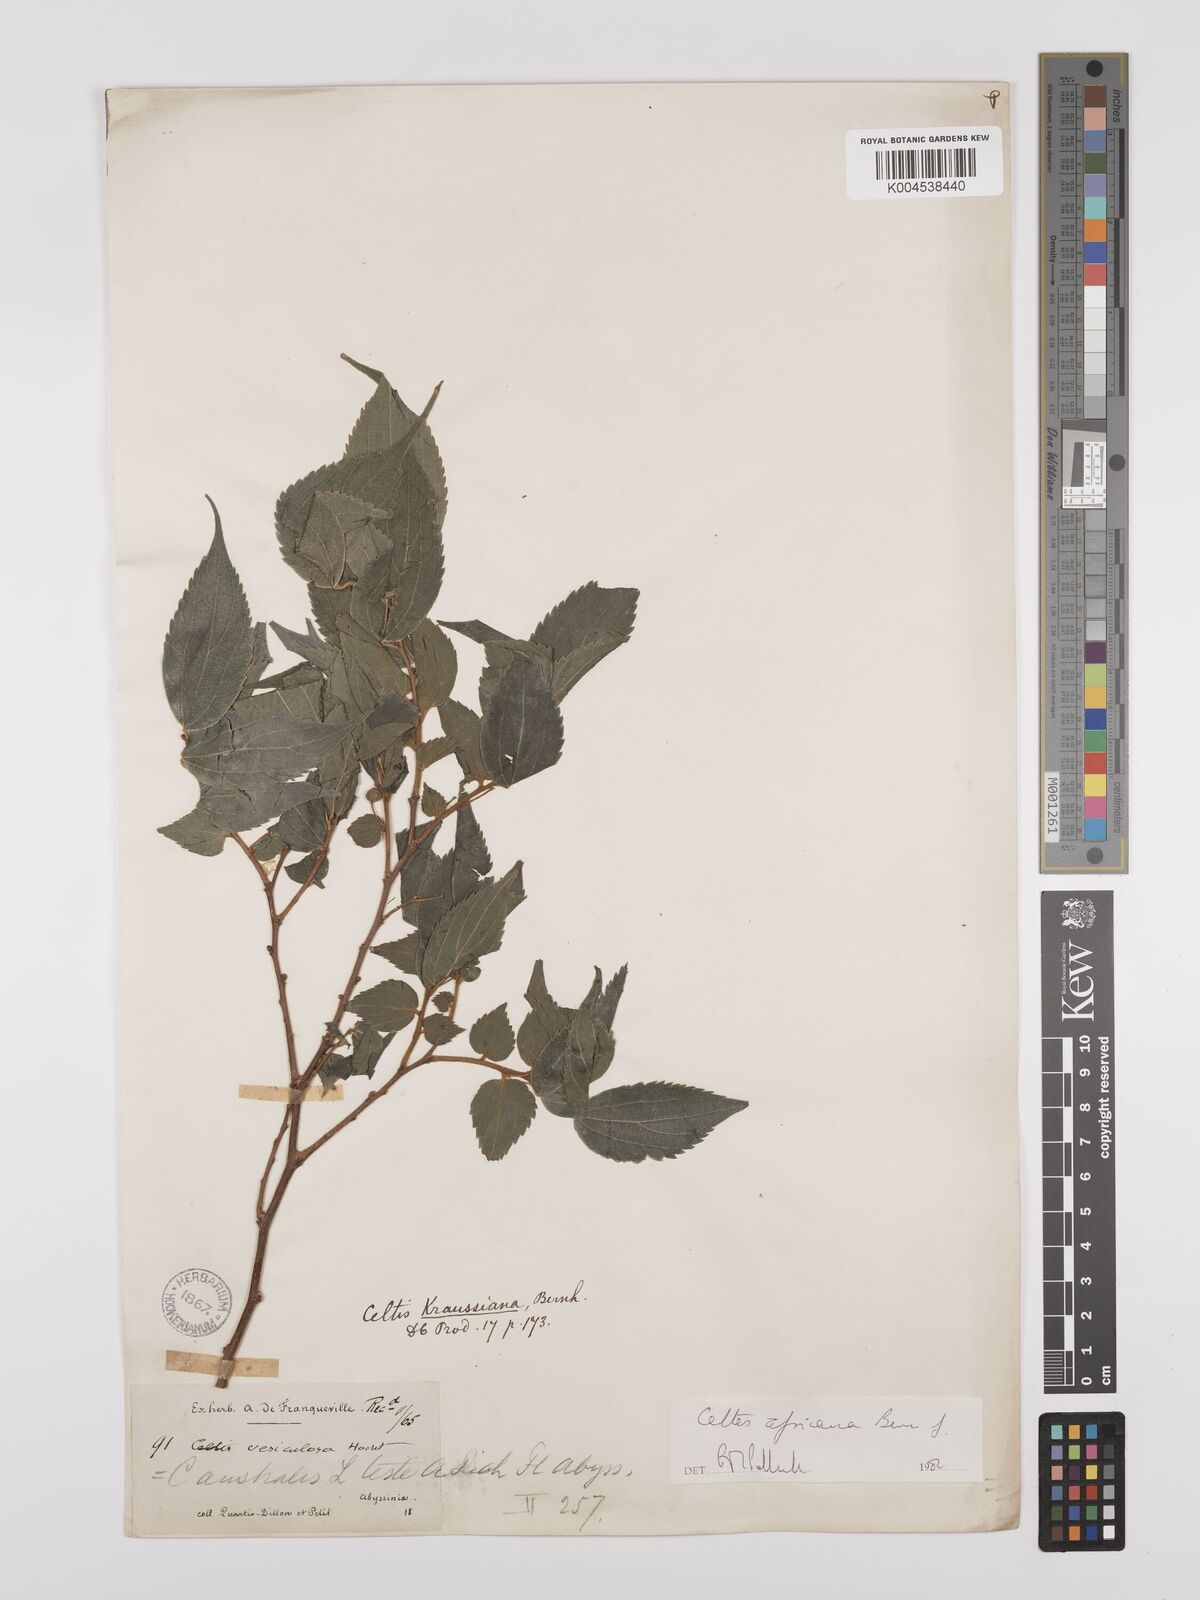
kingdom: Plantae
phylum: Tracheophyta
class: Magnoliopsida
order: Rosales
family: Cannabaceae
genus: Celtis
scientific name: Celtis africana
